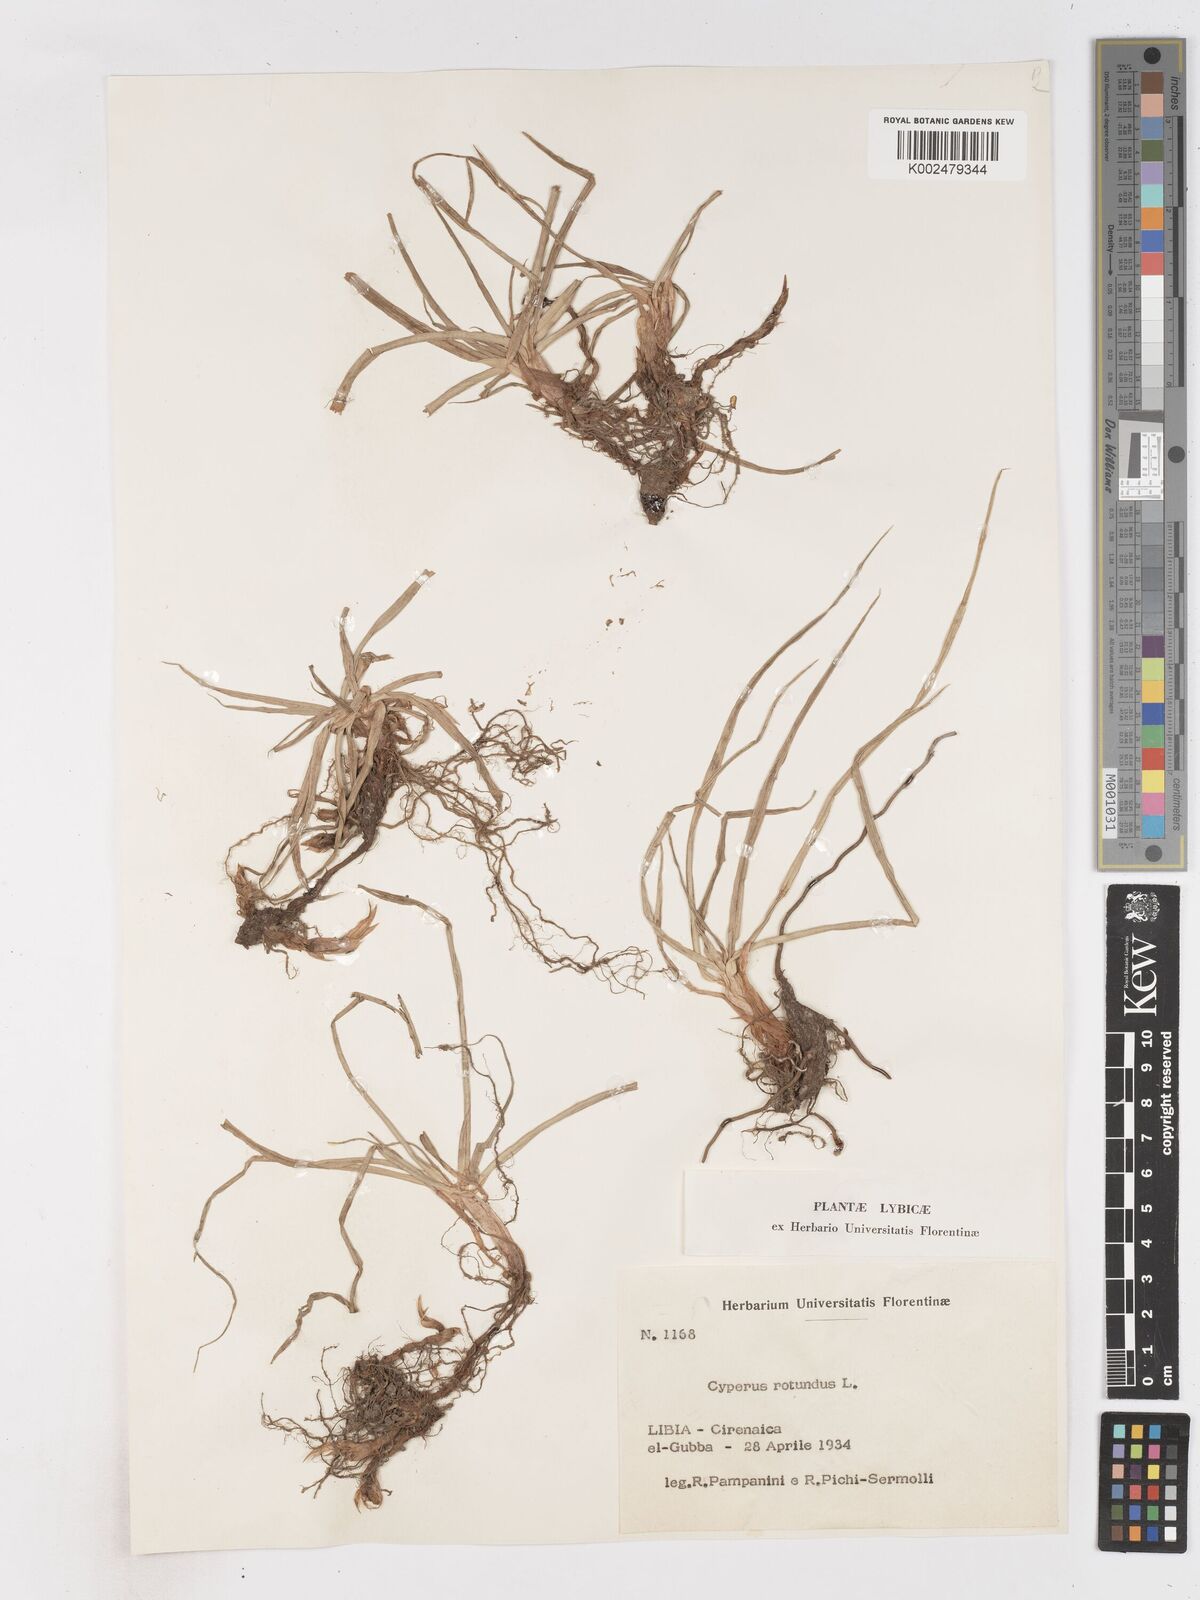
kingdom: Plantae
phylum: Tracheophyta
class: Liliopsida
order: Poales
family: Cyperaceae
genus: Cyperus
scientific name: Cyperus rotundus
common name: Nutgrass
